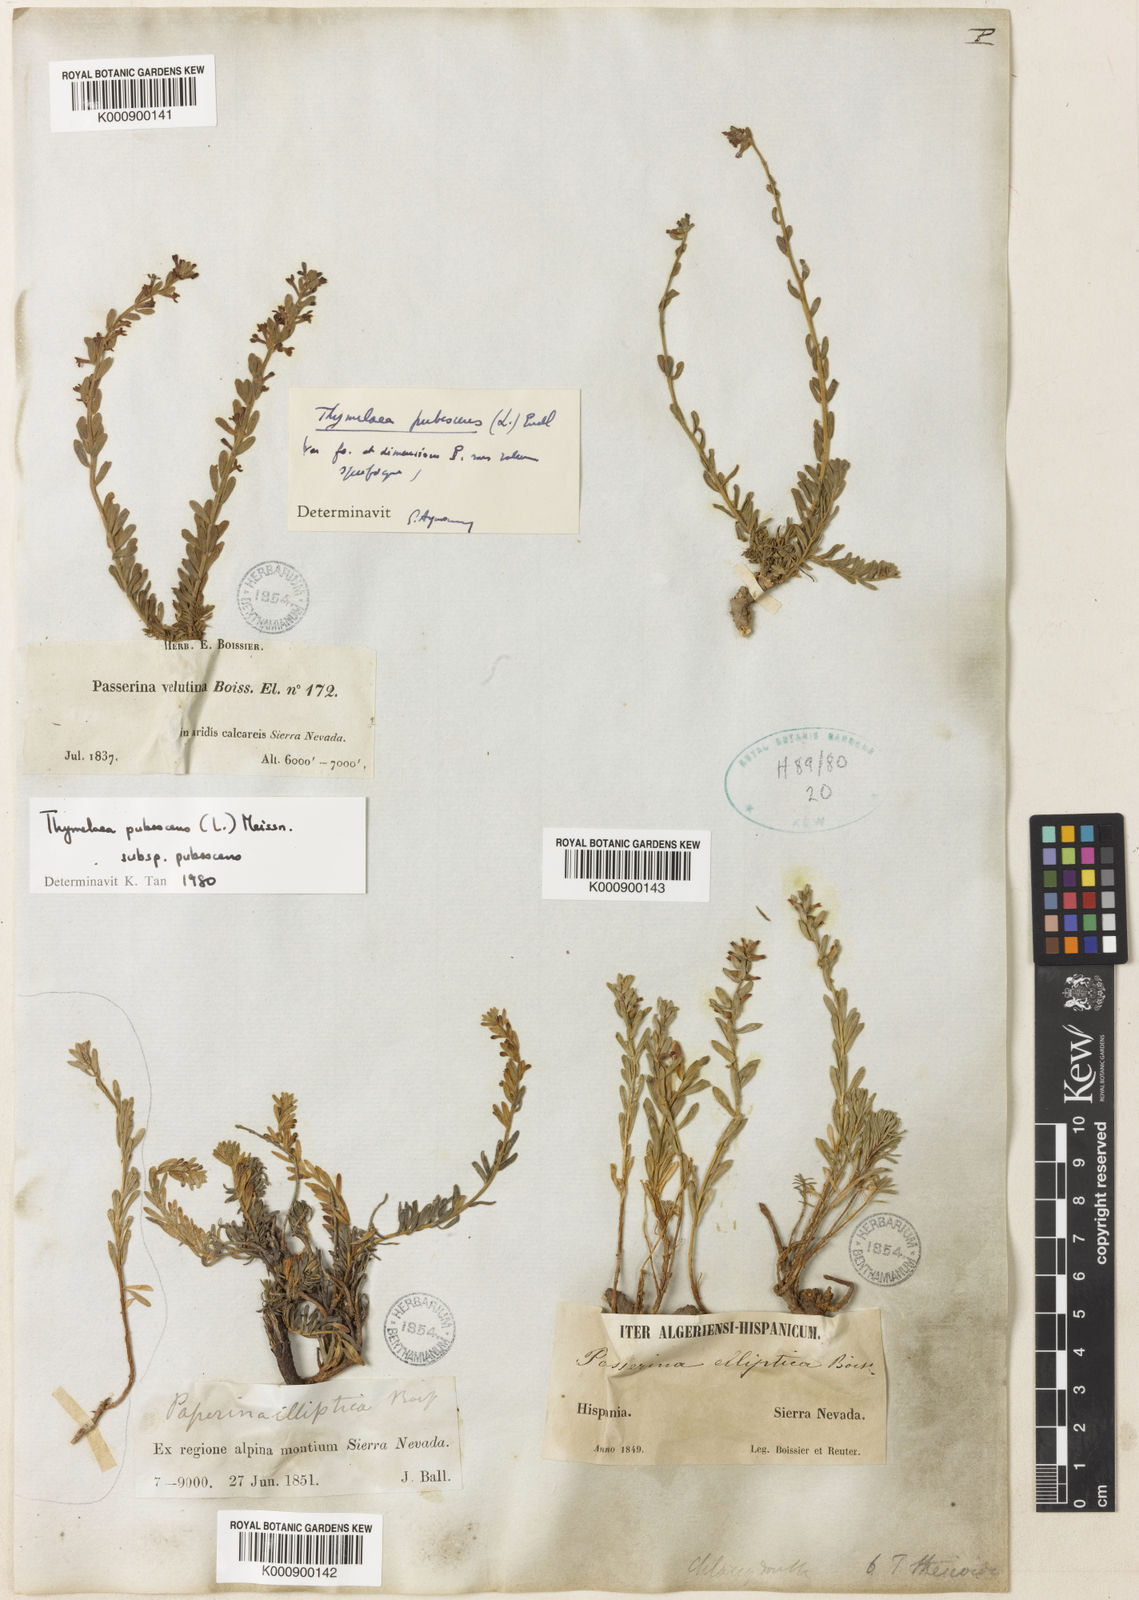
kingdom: Plantae
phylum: Tracheophyta
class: Magnoliopsida
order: Malvales
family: Thymelaeaceae
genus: Thymelaea
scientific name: Thymelaea pubescens
